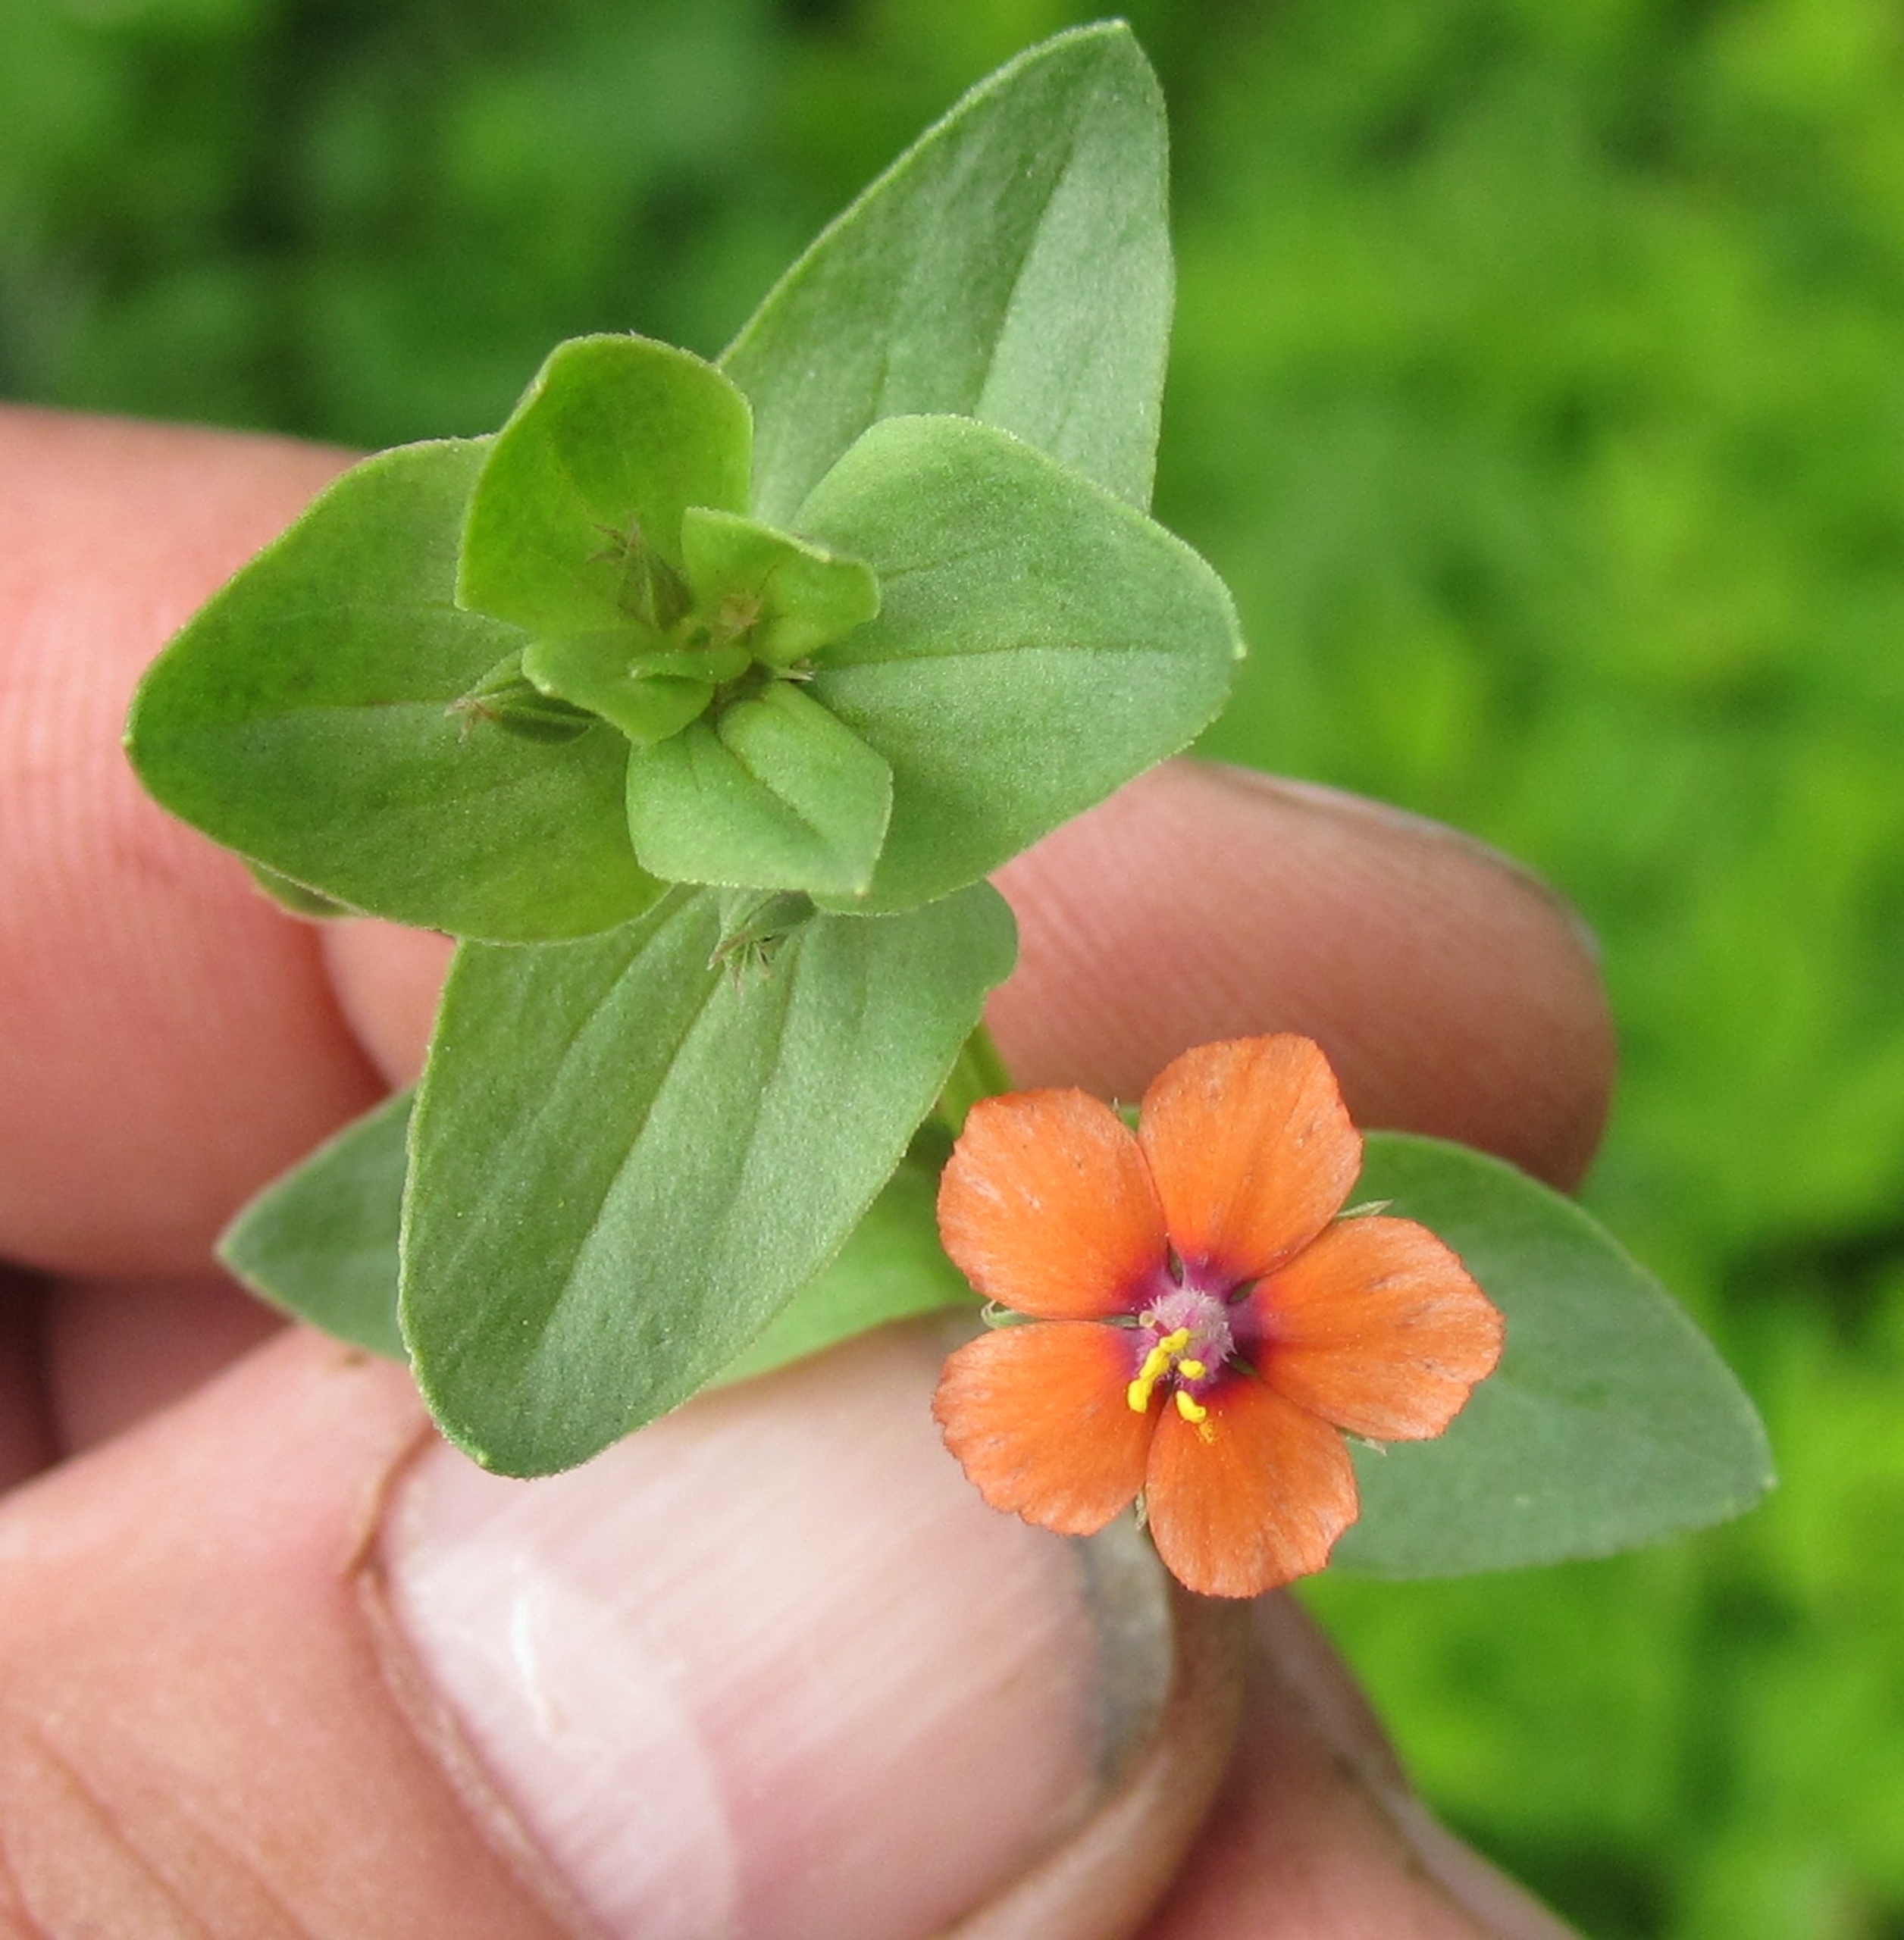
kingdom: Plantae
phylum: Tracheophyta
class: Magnoliopsida
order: Ericales
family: Primulaceae
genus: Lysimachia
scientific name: Lysimachia arvensis
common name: Rød arve
